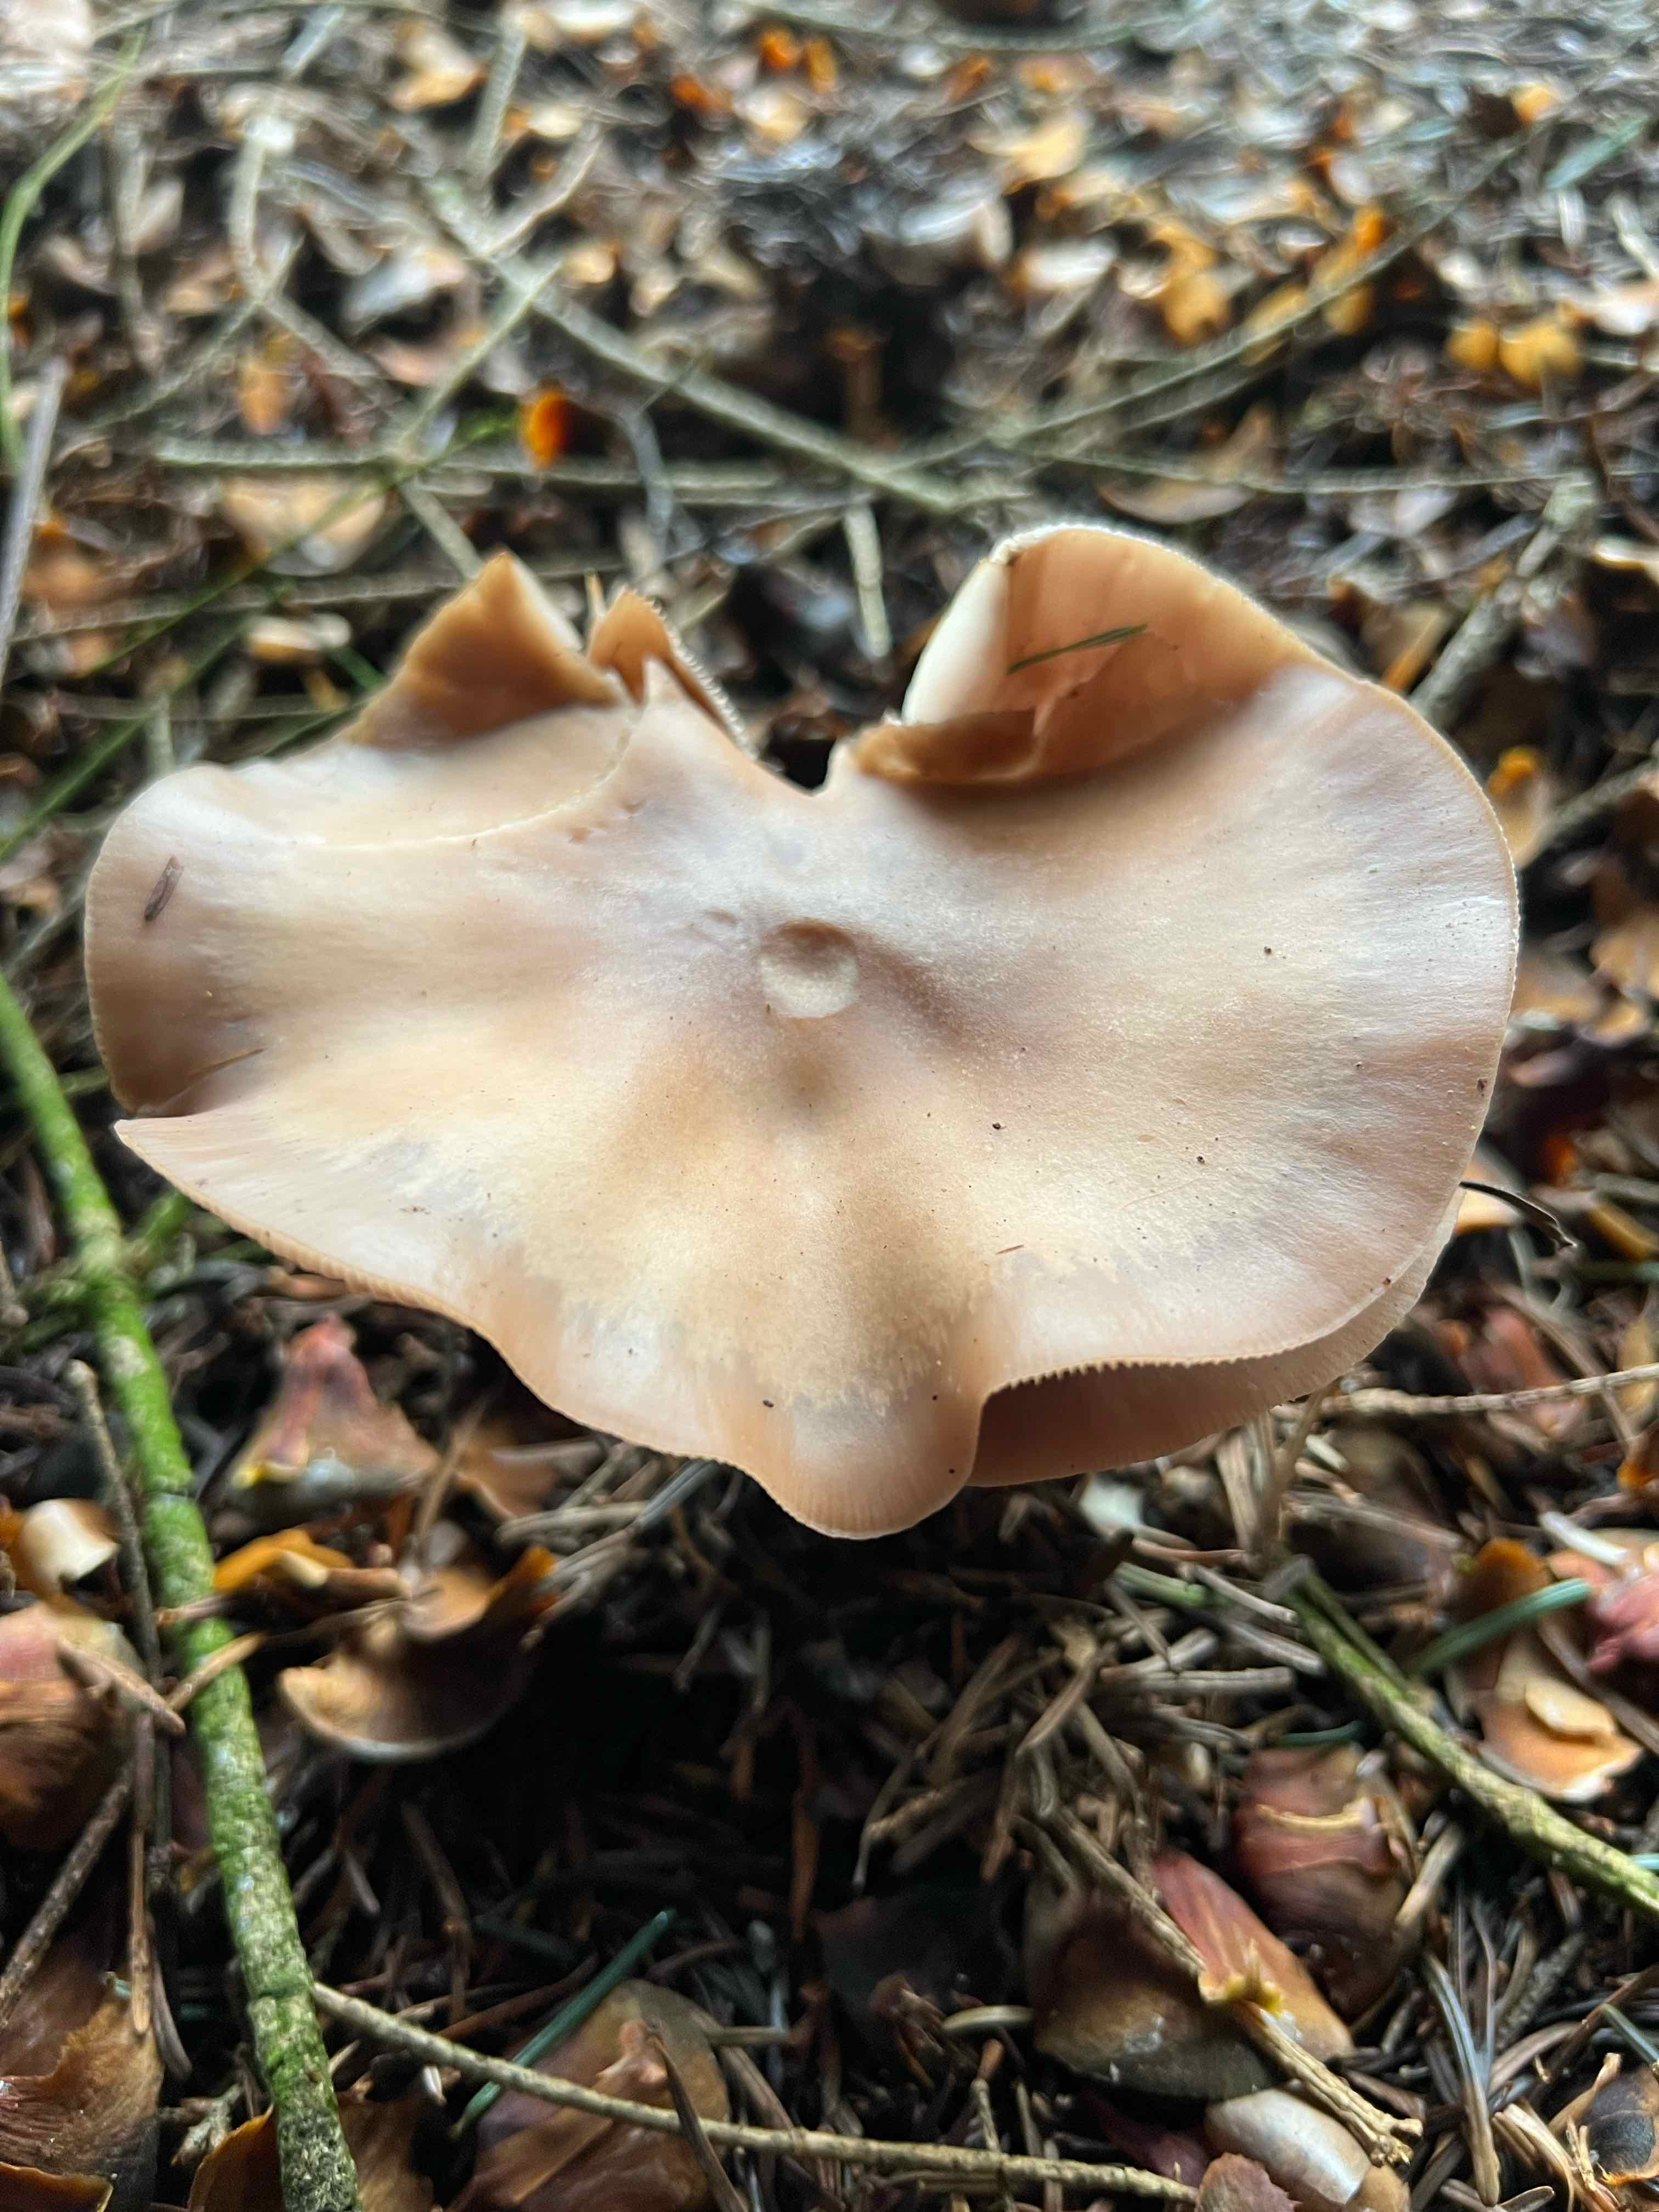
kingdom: Fungi
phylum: Basidiomycota
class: Agaricomycetes
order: Agaricales
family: Tricholomataceae
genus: Lepista
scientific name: Lepista
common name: hekseringshat
